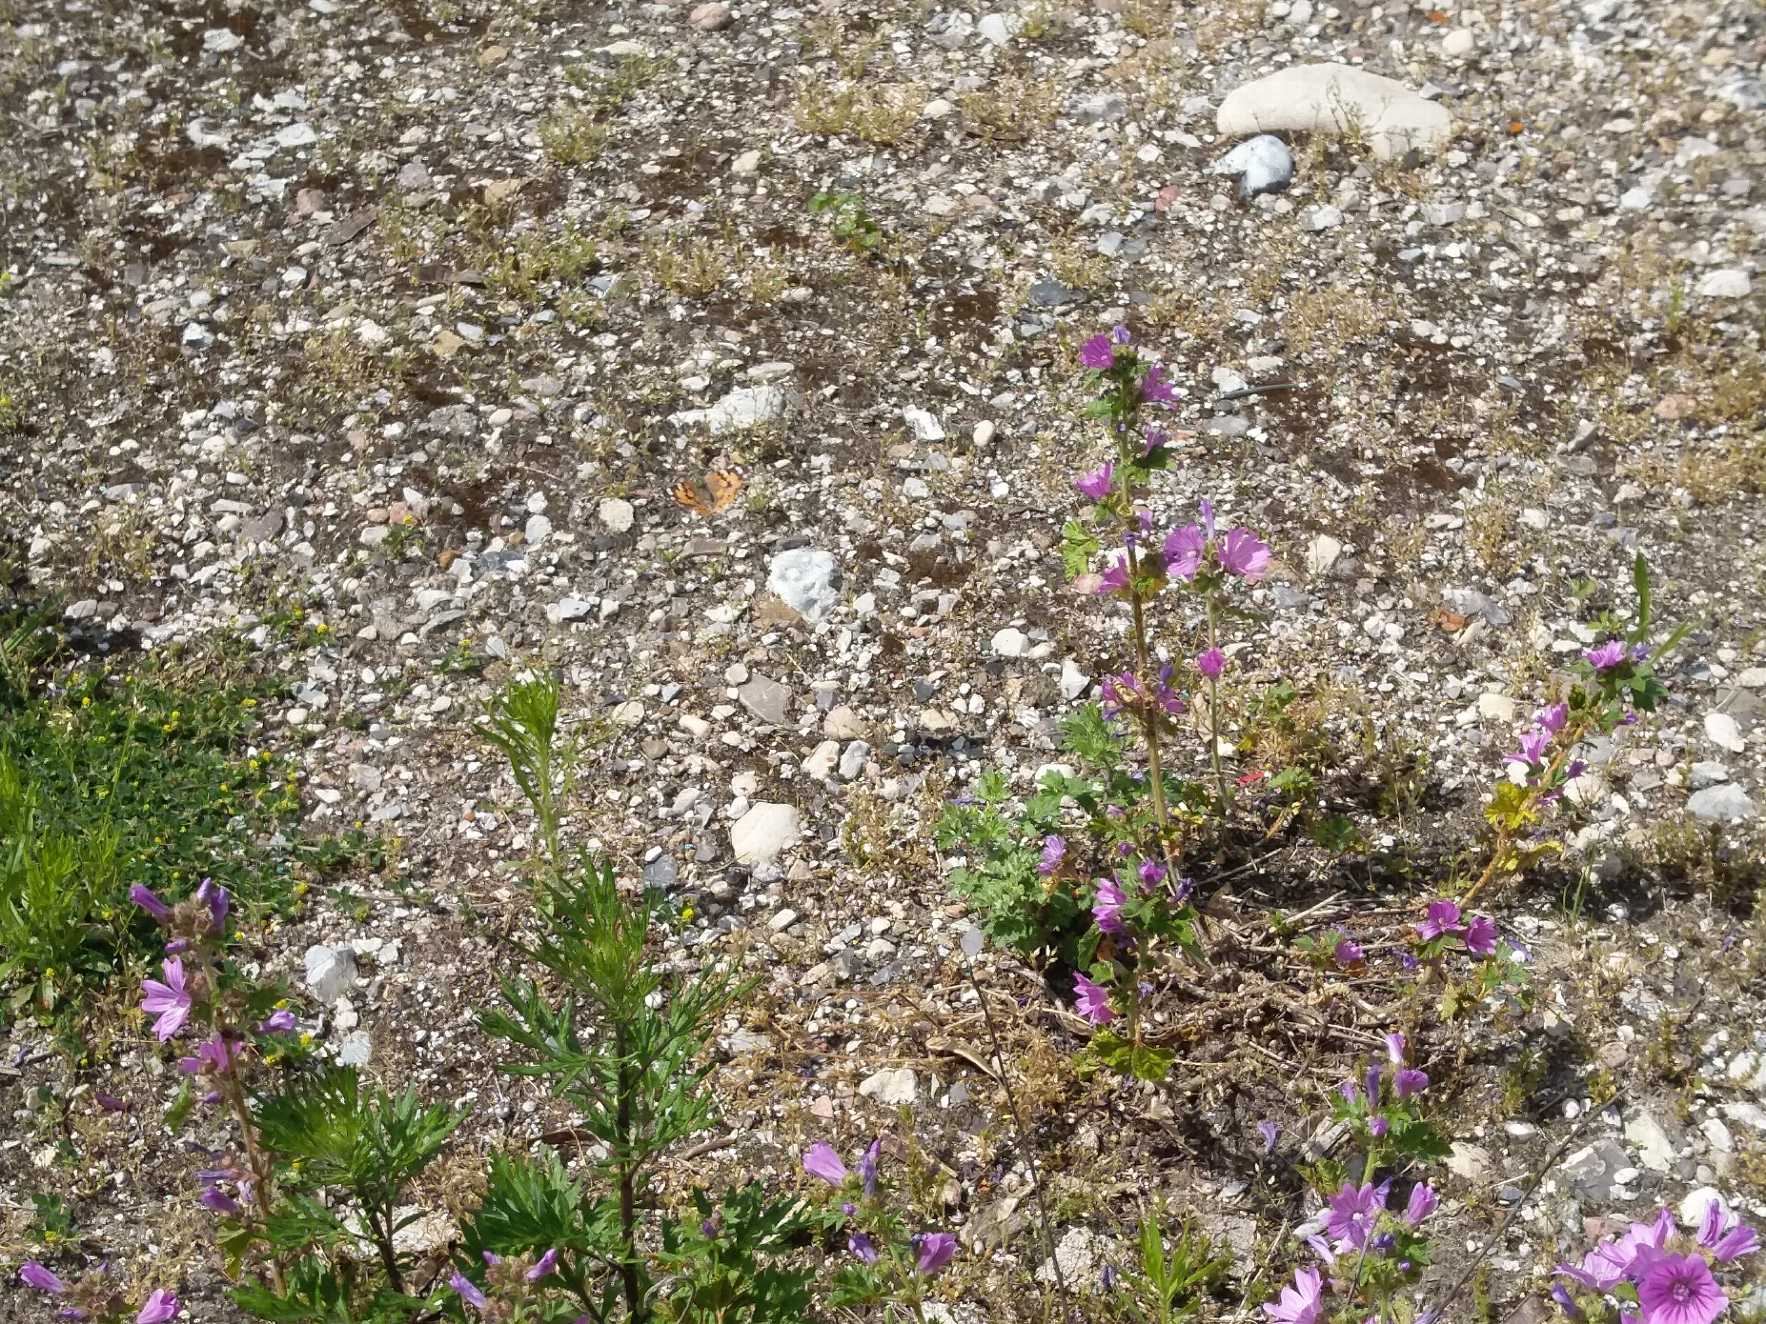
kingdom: Animalia
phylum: Arthropoda
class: Insecta
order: Lepidoptera
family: Nymphalidae
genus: Vanessa
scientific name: Vanessa cardui
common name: Tidselsommerfugl
